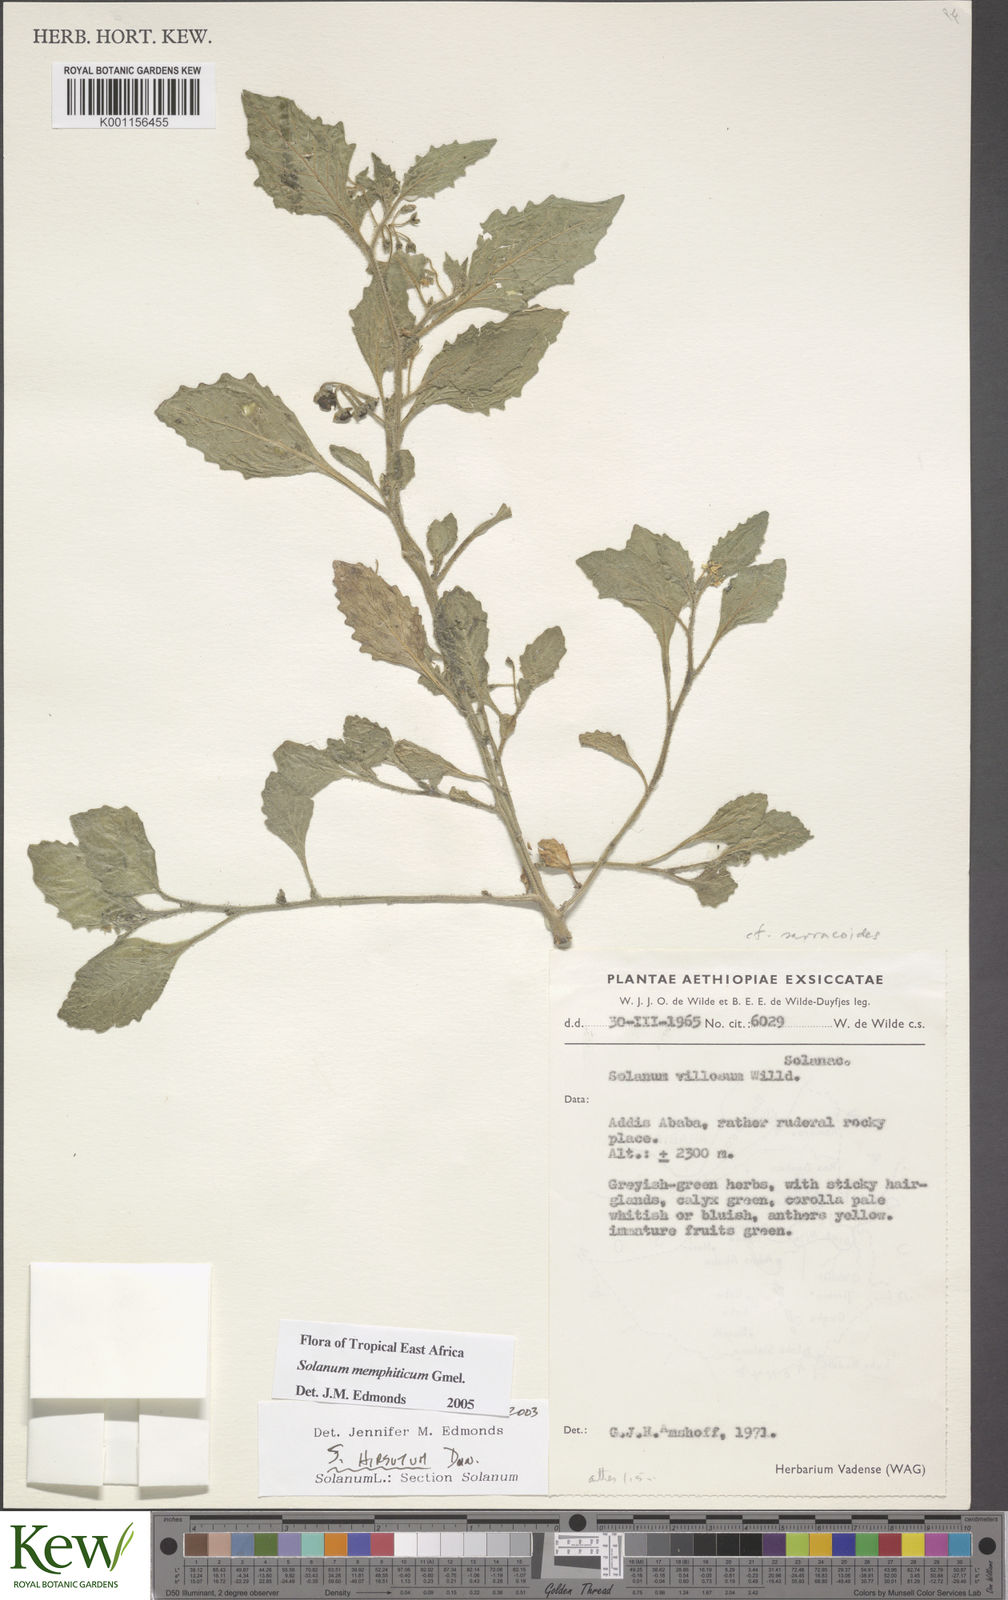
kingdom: Plantae
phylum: Tracheophyta
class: Magnoliopsida
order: Solanales
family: Solanaceae
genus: Solanum
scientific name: Solanum memphiticum
